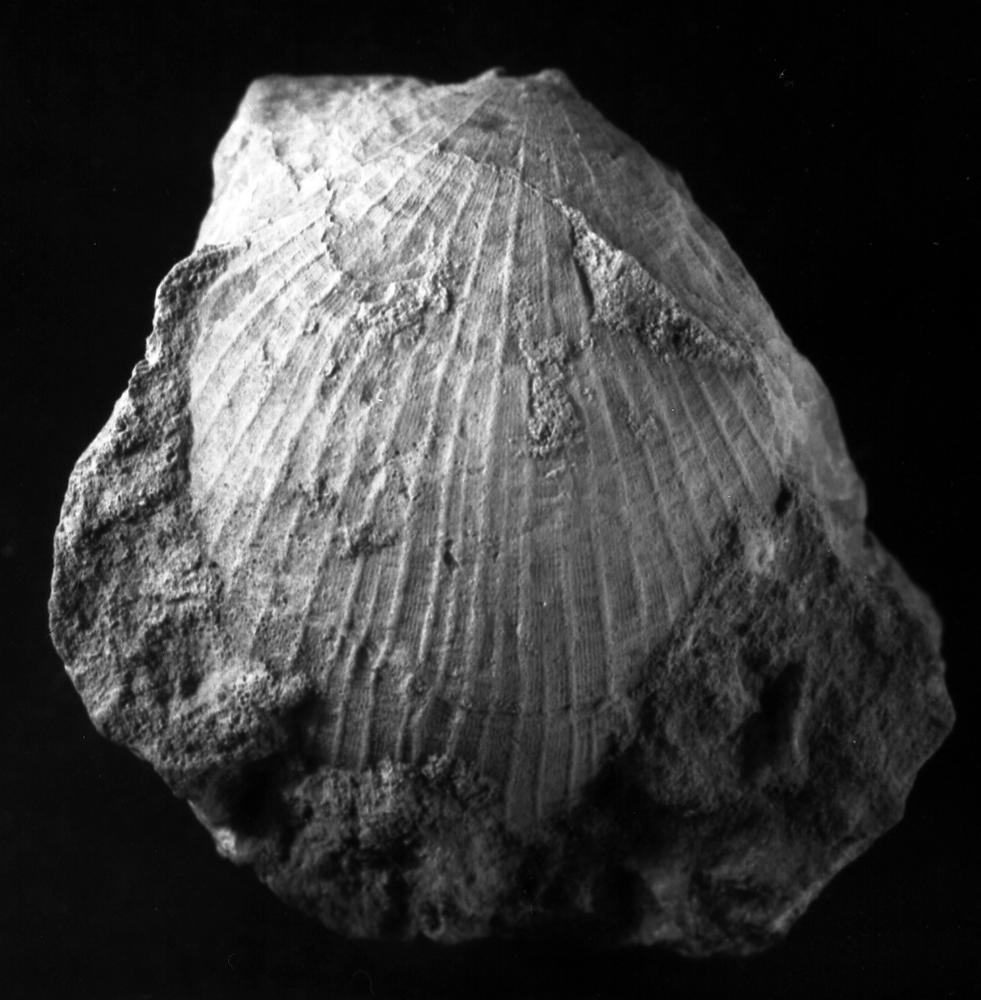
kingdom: Animalia
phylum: Brachiopoda
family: Strophomenidae
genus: Panderites
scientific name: Panderites Plectambonites imbrex
